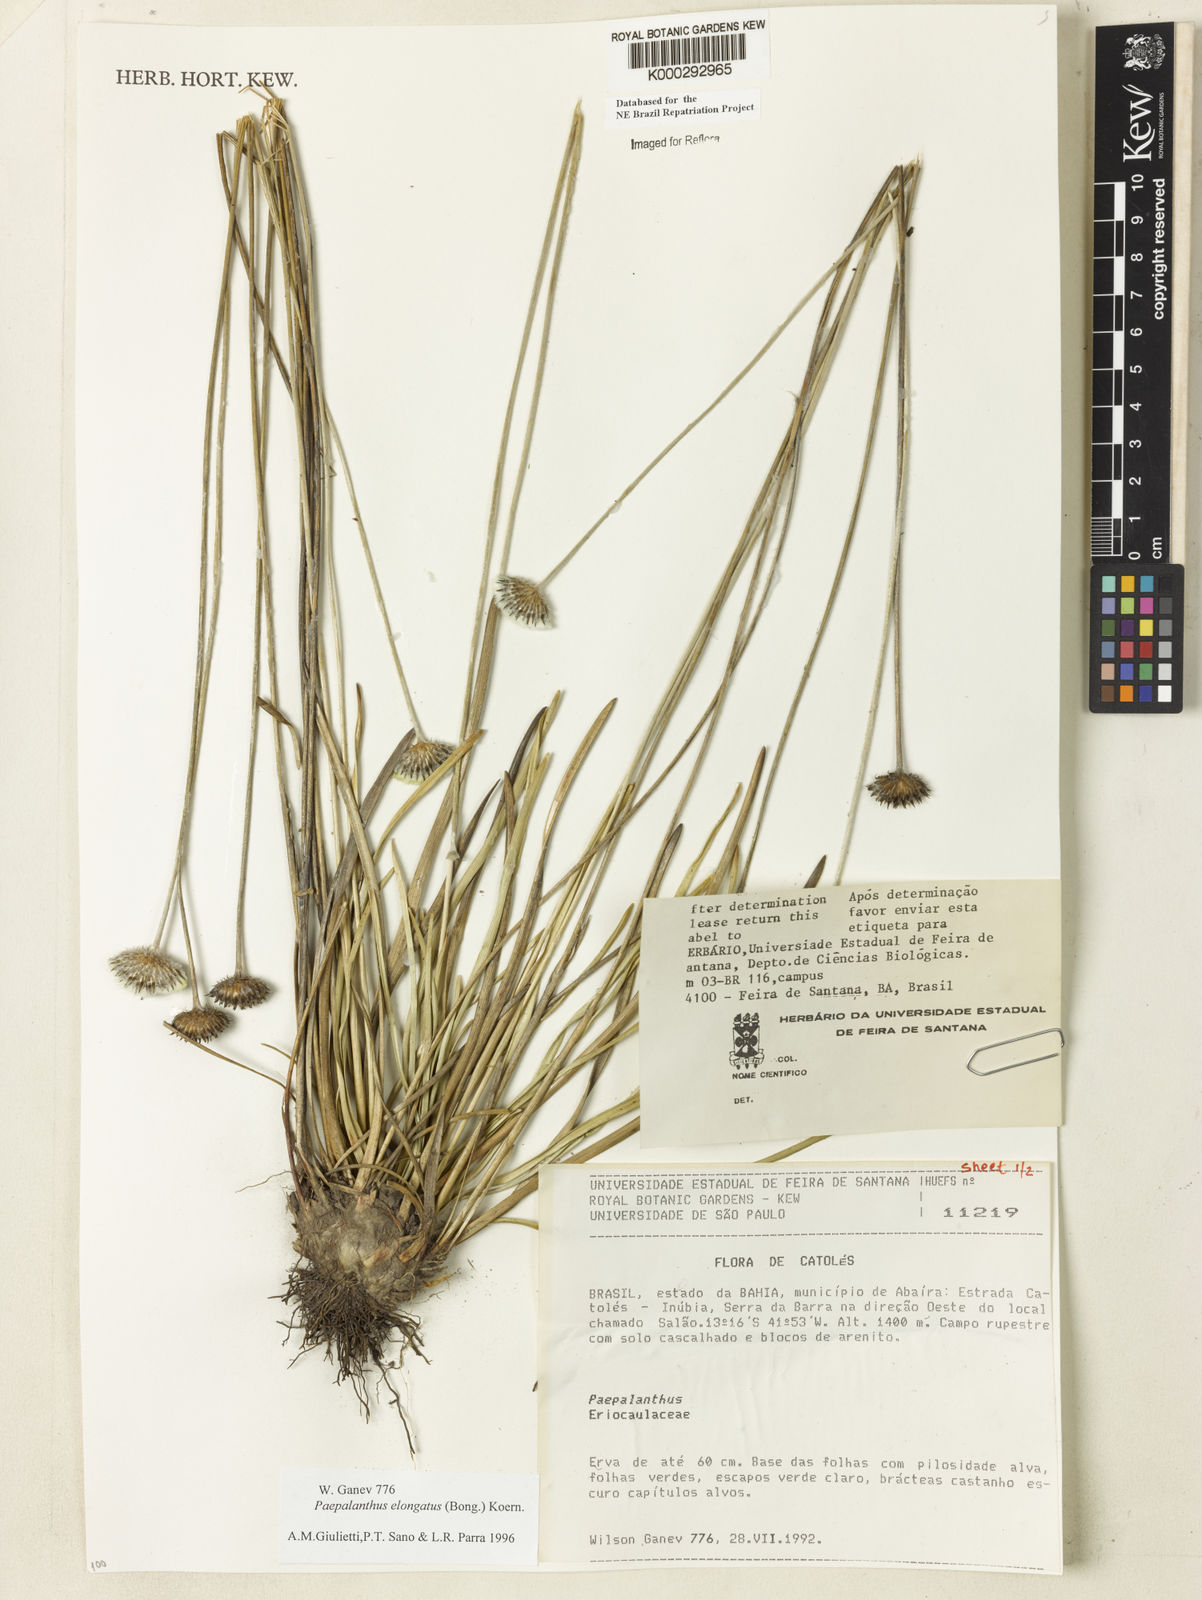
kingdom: Plantae
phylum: Tracheophyta
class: Liliopsida
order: Poales
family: Eriocaulaceae
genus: Paepalanthus
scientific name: Paepalanthus
